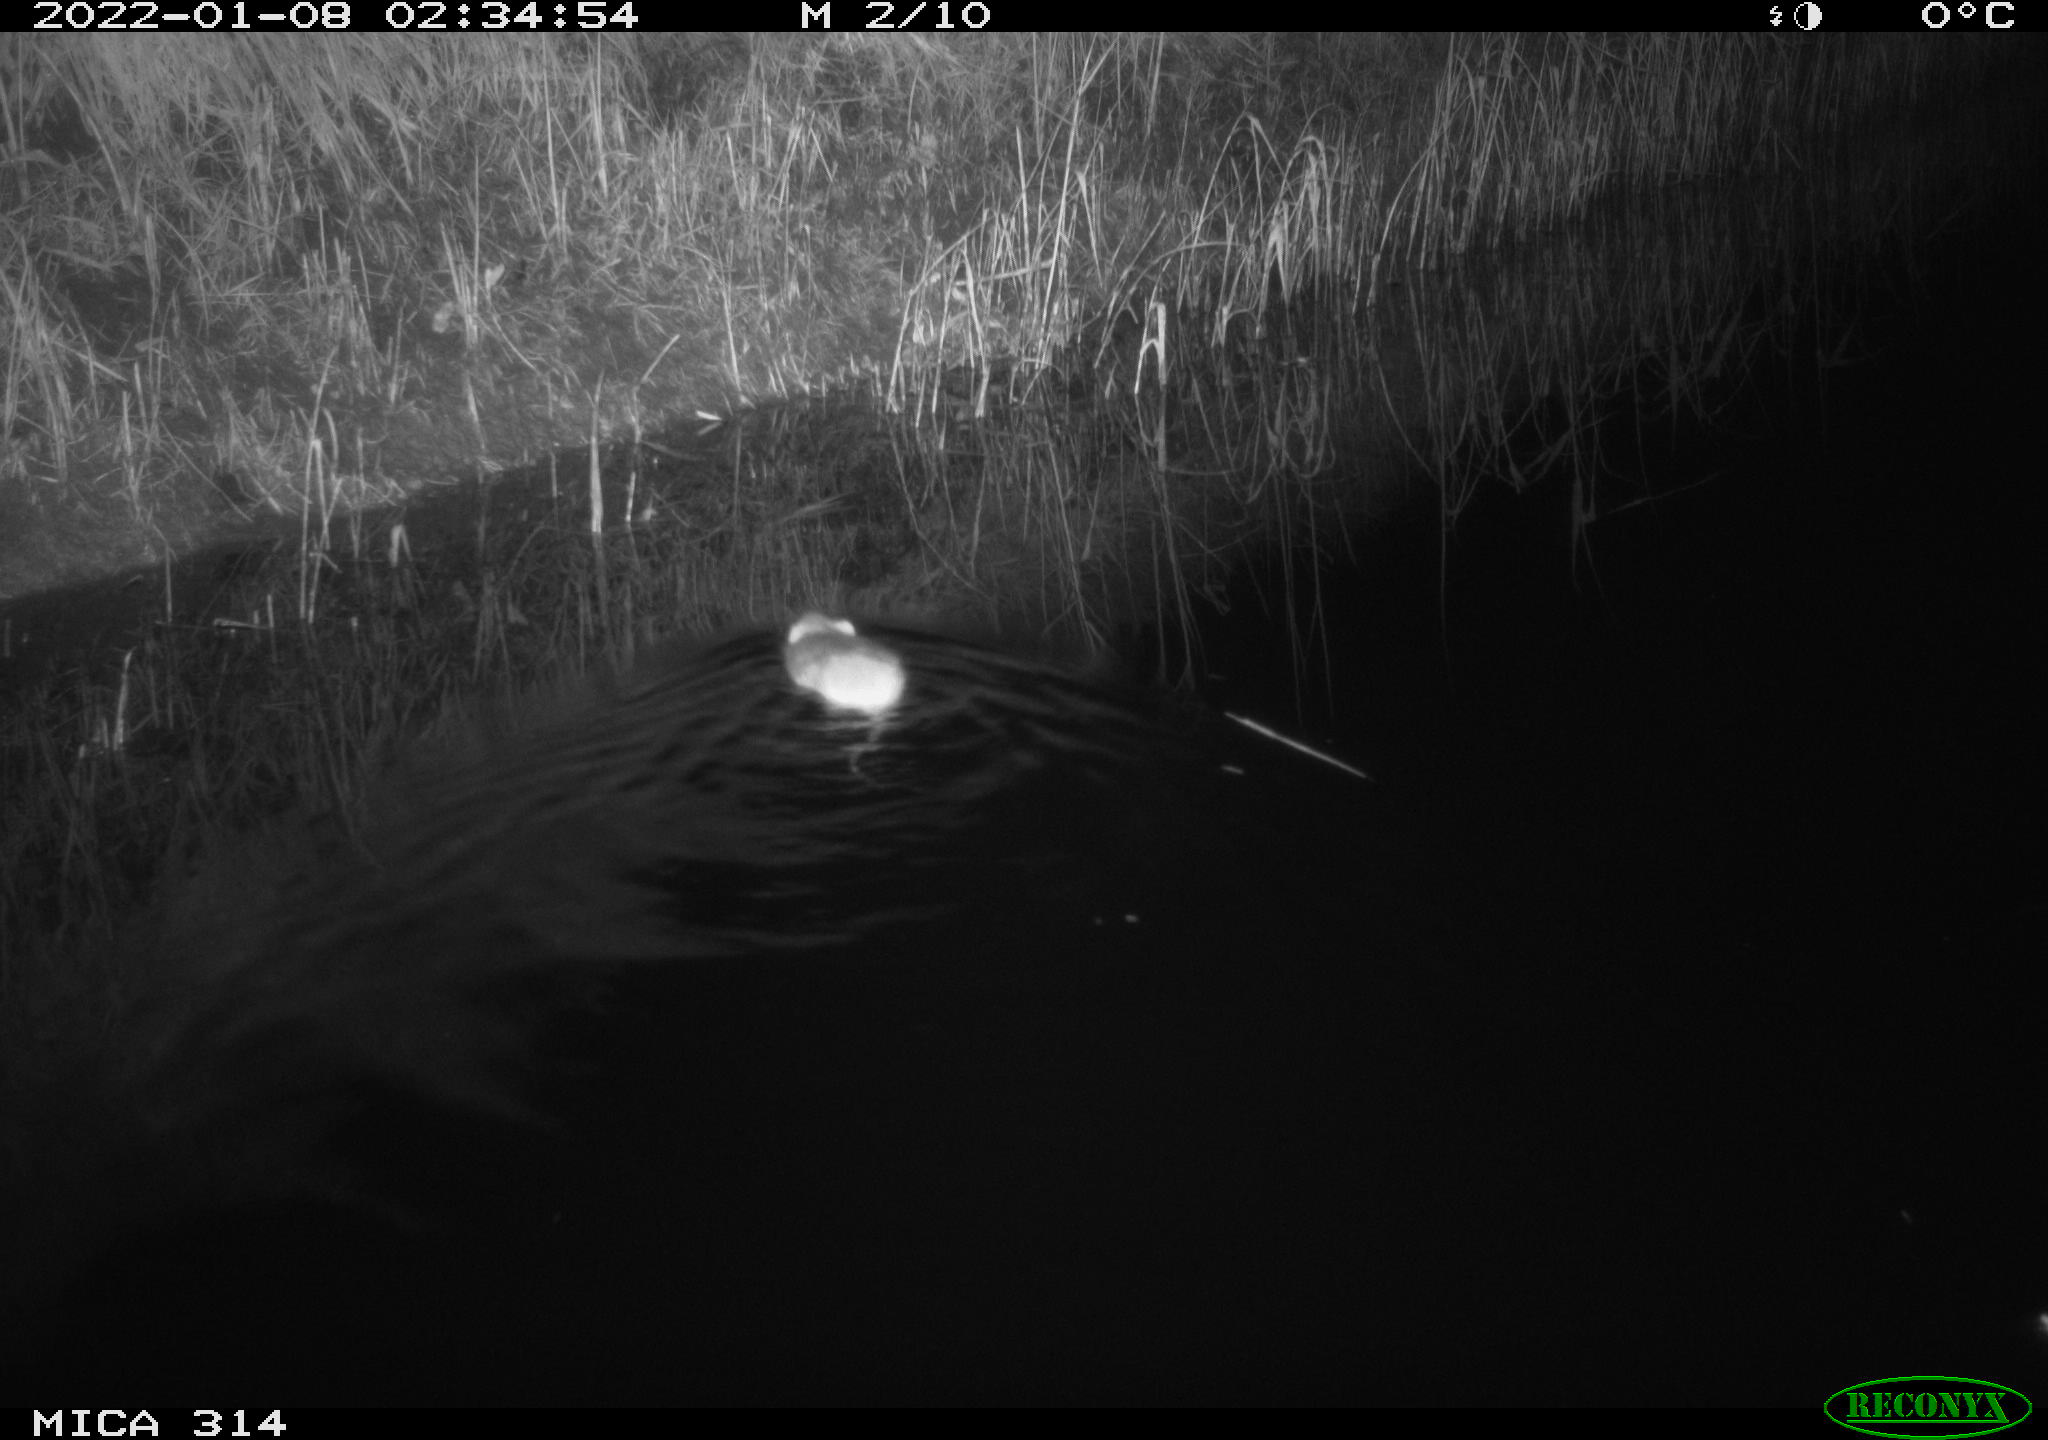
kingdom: Animalia
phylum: Chordata
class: Mammalia
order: Rodentia
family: Muridae
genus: Rattus
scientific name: Rattus norvegicus
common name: Brown rat
